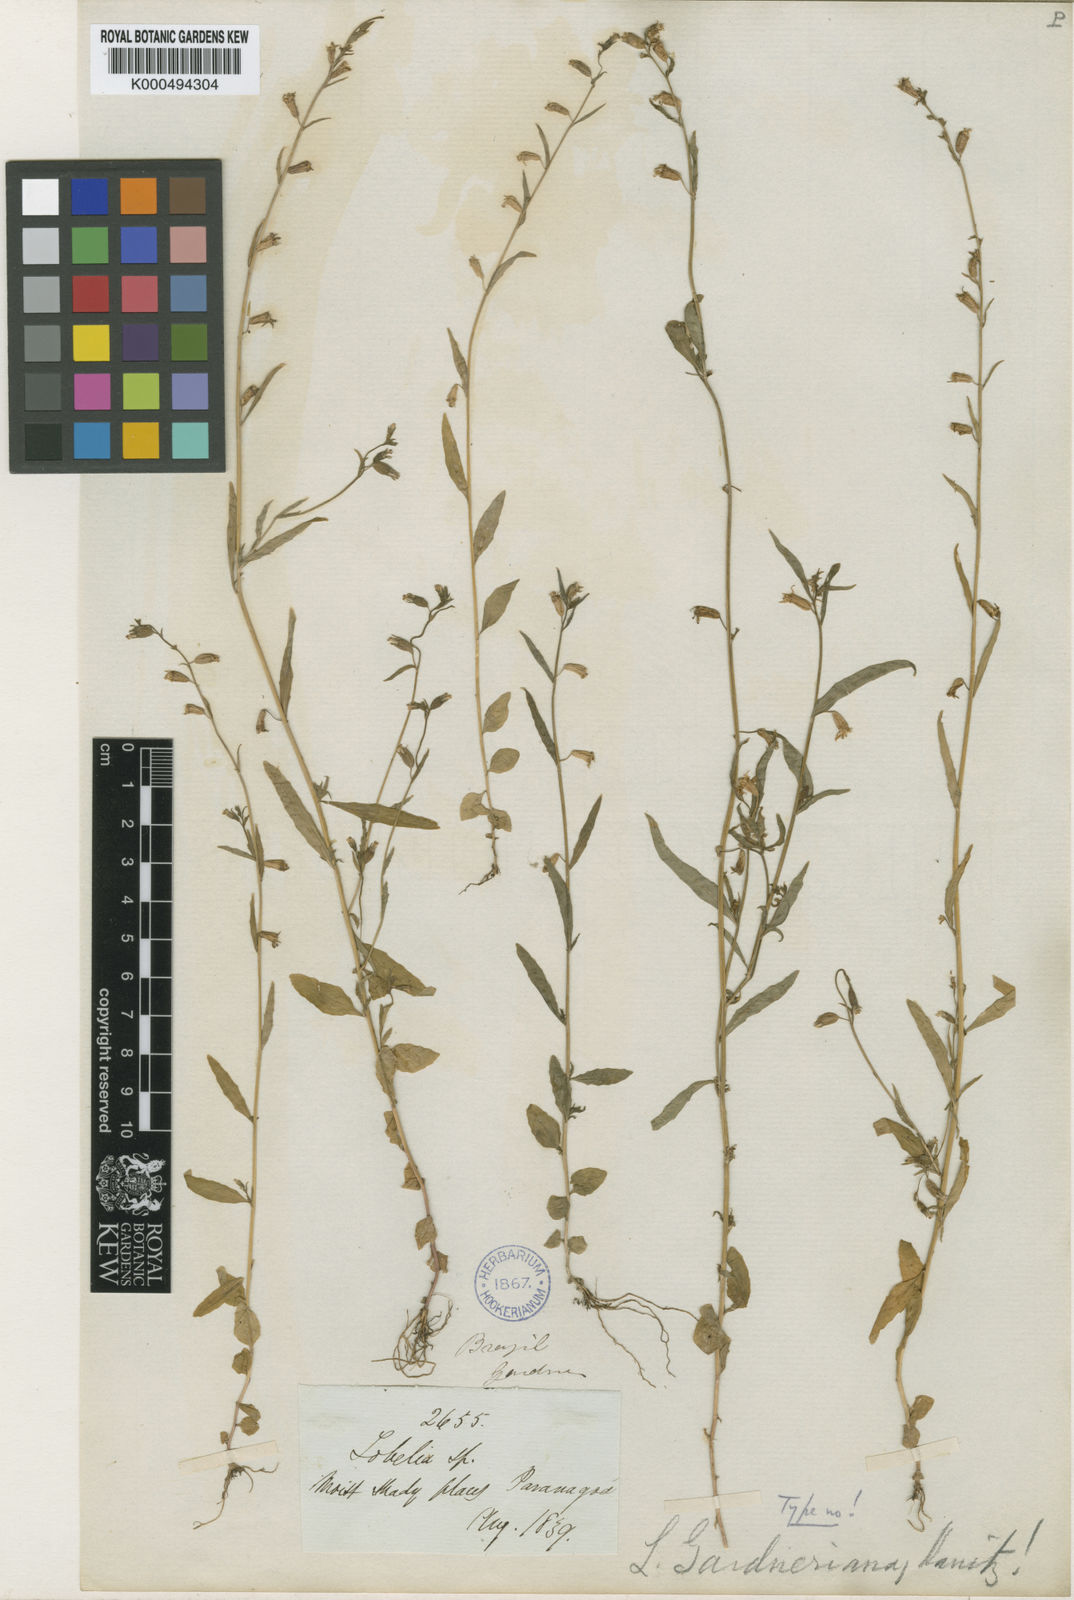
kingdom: Plantae
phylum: Tracheophyta
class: Magnoliopsida
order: Asterales
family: Campanulaceae
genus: Lobelia
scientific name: Lobelia fastigiata
